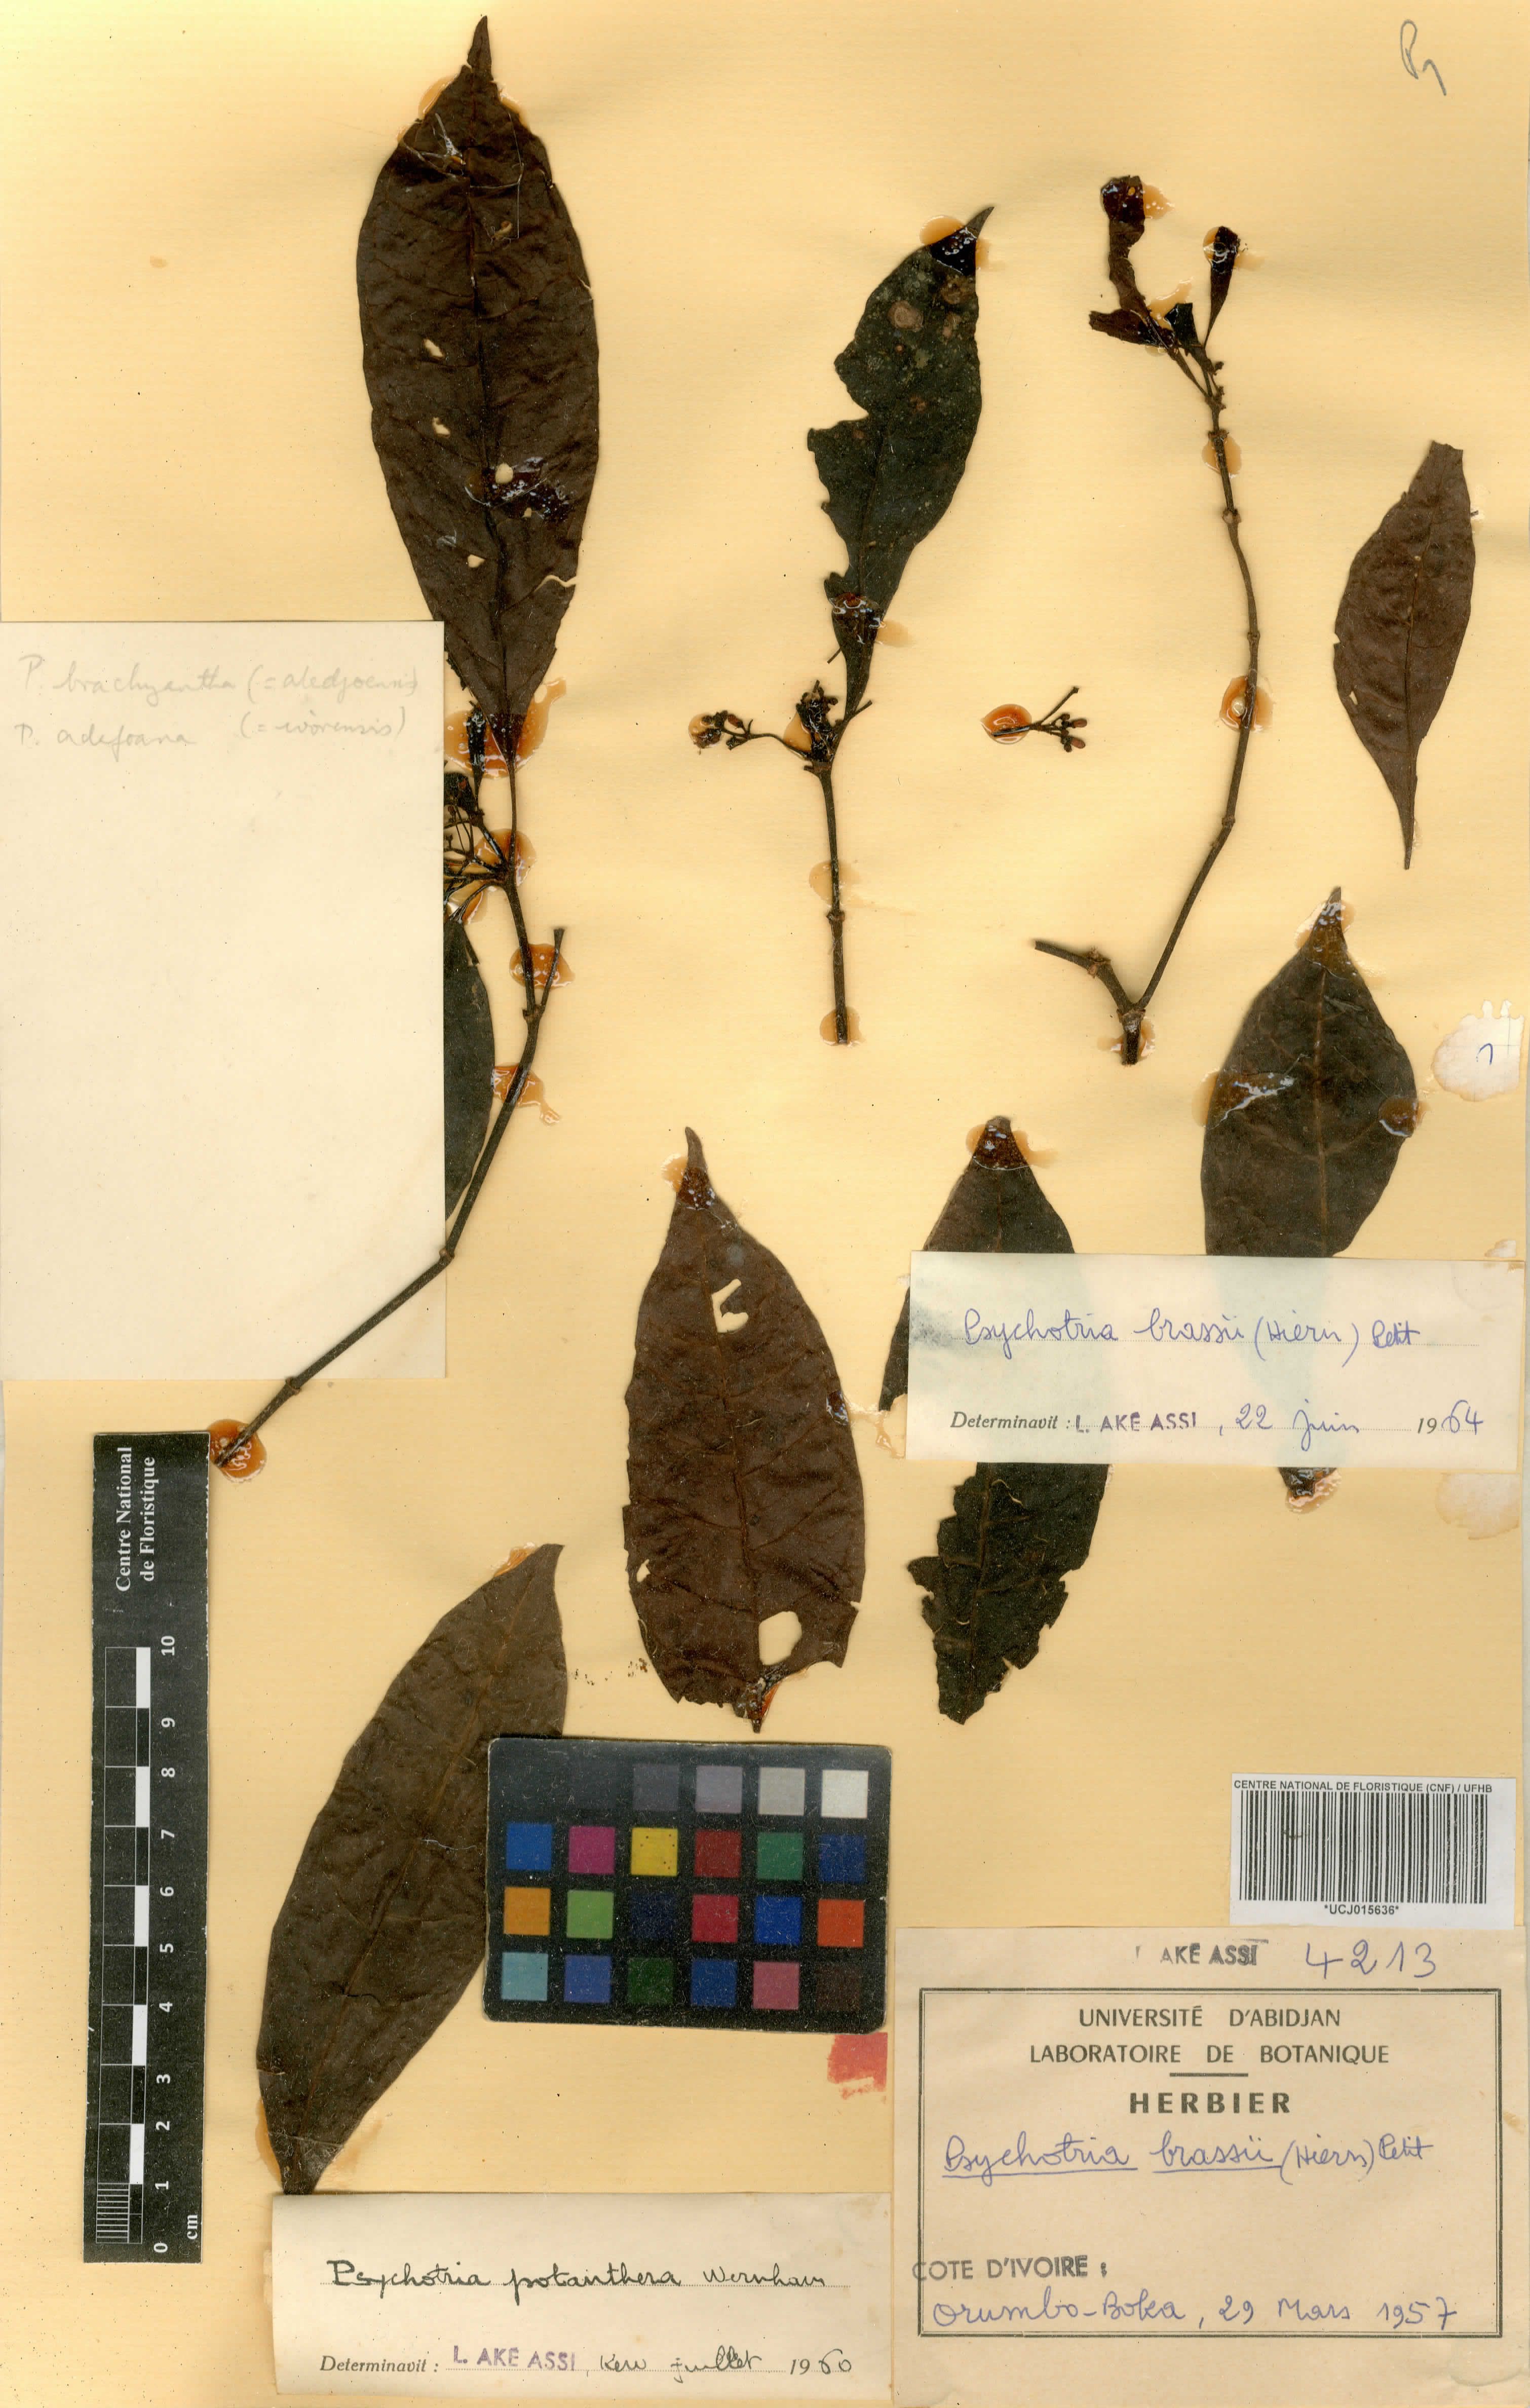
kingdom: Plantae
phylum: Tracheophyta
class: Magnoliopsida
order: Gentianales
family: Rubiaceae
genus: Psychotria
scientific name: Psychotria brassii
